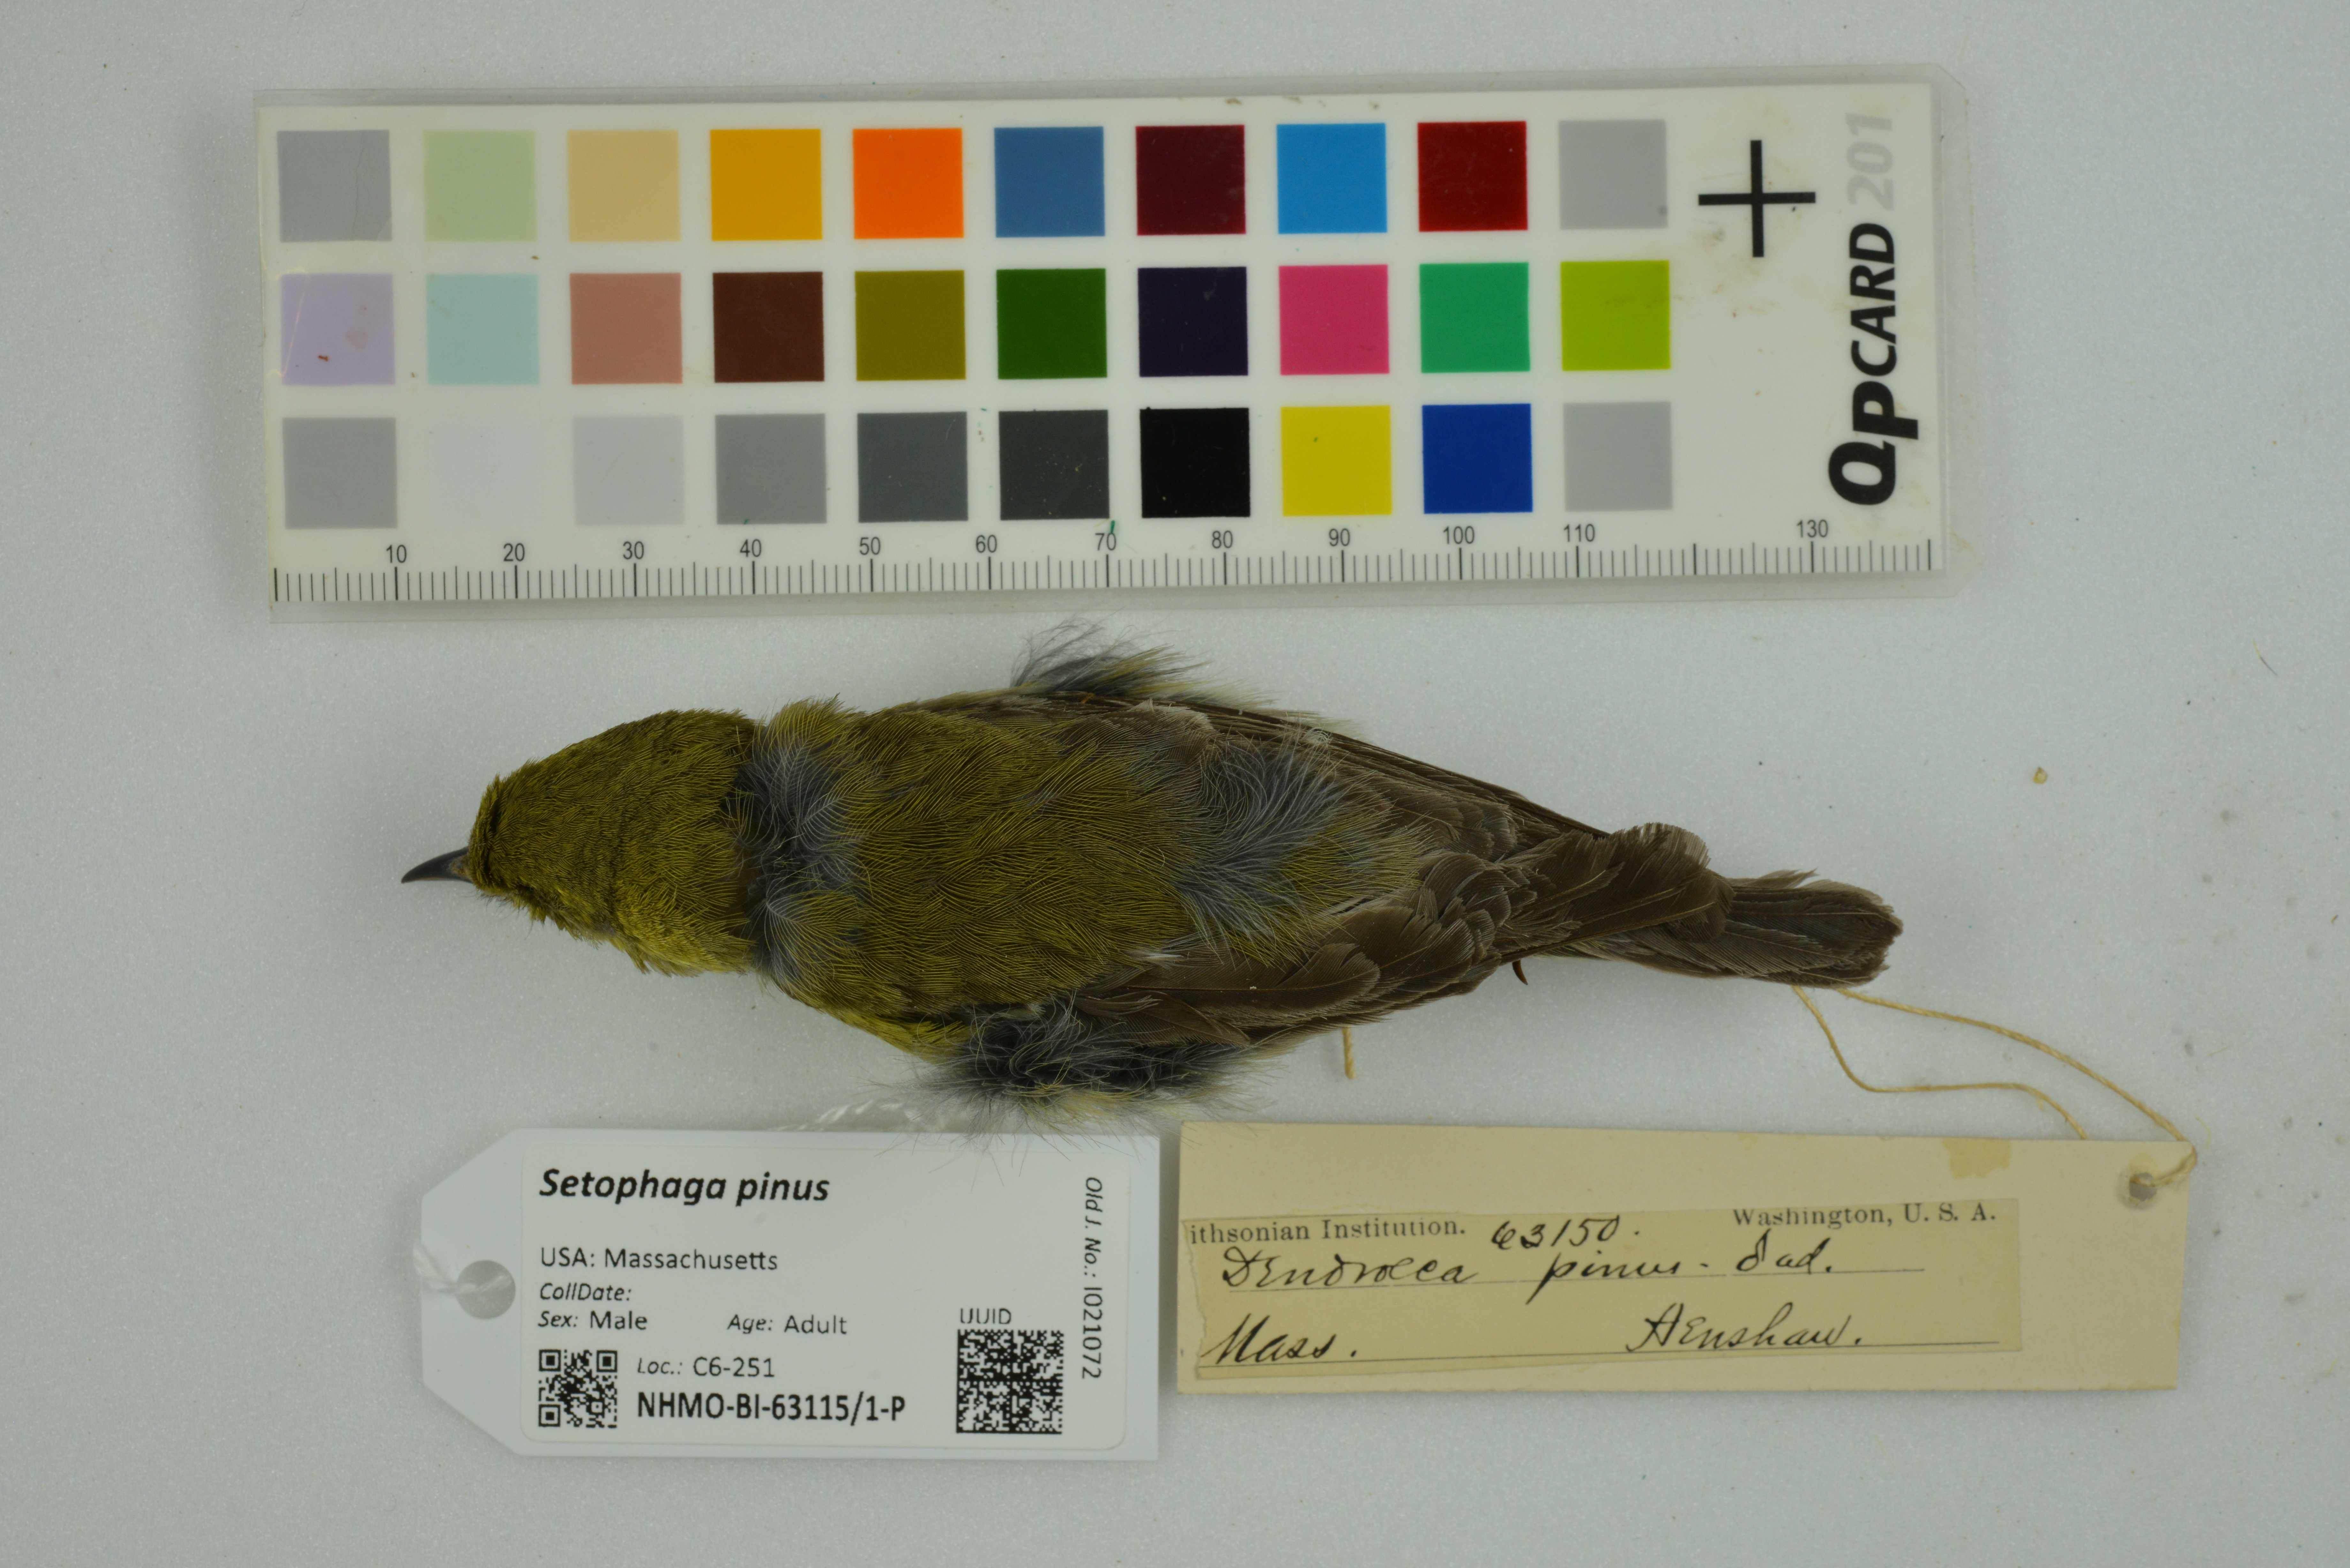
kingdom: Animalia
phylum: Chordata
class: Aves
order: Passeriformes
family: Parulidae
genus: Setophaga
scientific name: Setophaga pinus
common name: Pine warbler
